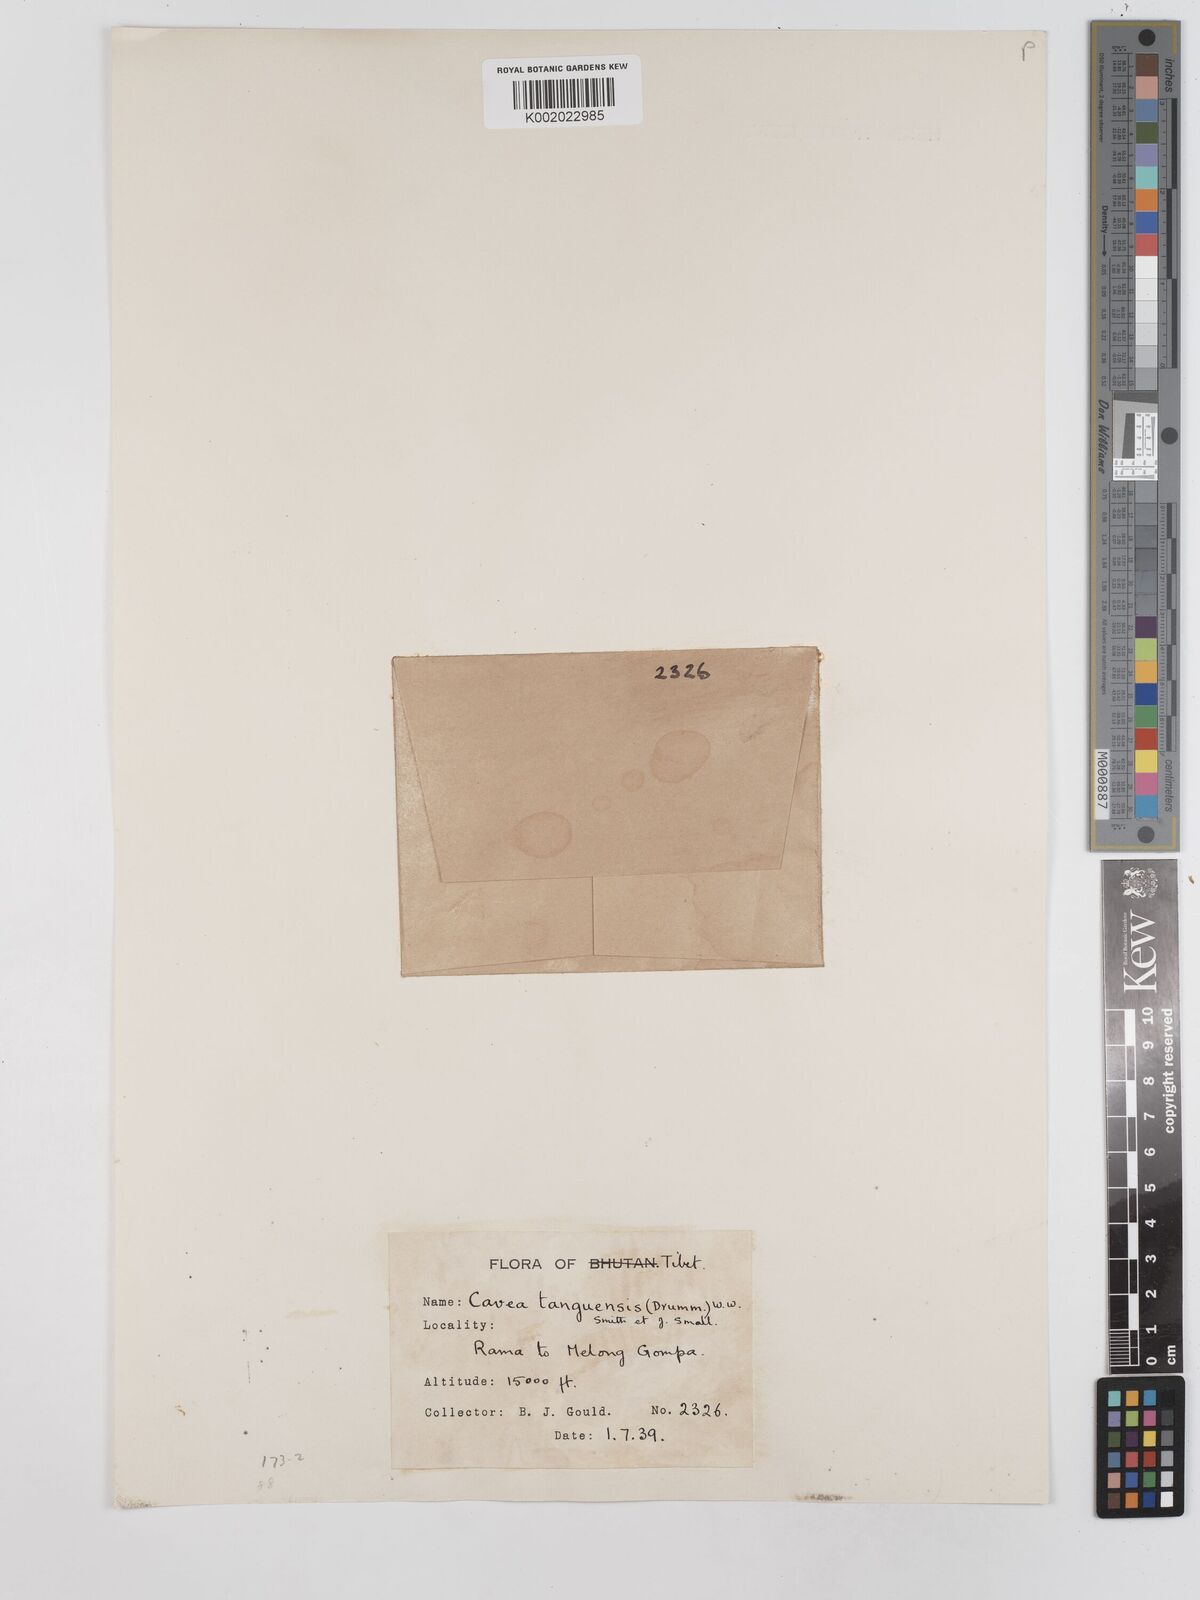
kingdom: Plantae
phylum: Tracheophyta
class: Magnoliopsida
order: Asterales
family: Asteraceae
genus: Cavea
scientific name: Cavea tanguensis
